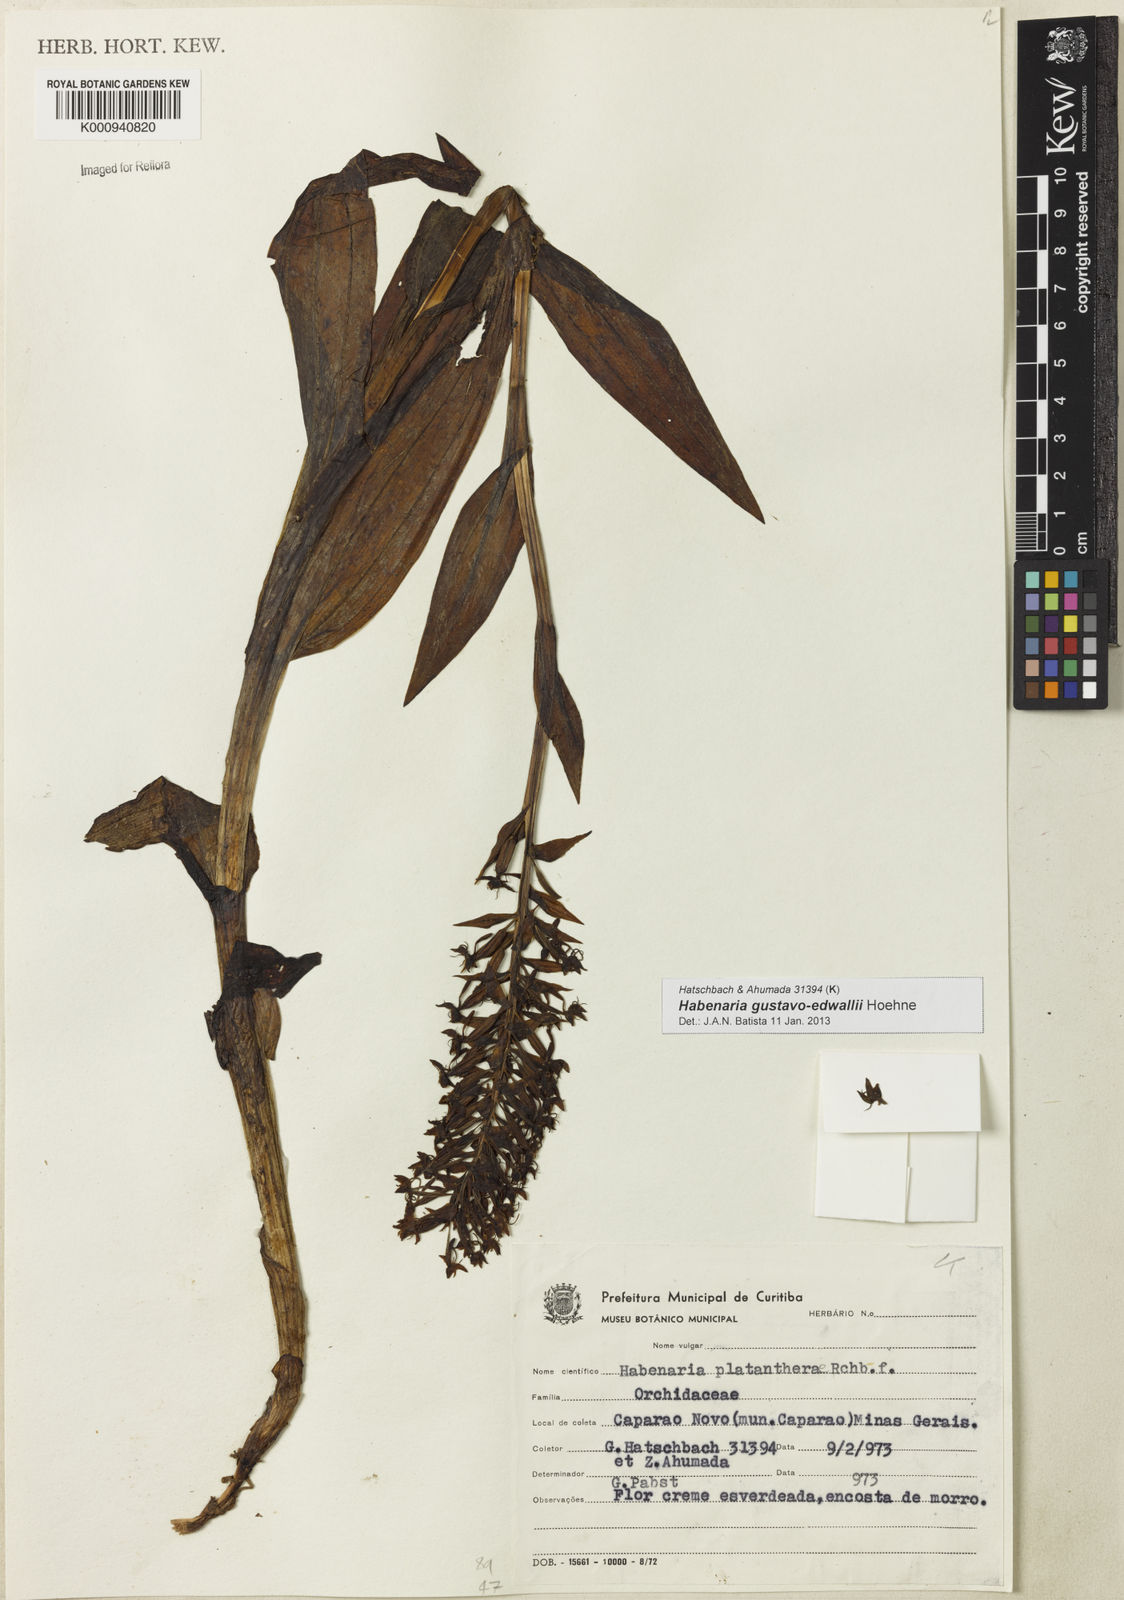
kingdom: Plantae
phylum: Tracheophyta
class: Liliopsida
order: Asparagales
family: Orchidaceae
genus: Habenaria
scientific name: Habenaria gustavo-edwallii
